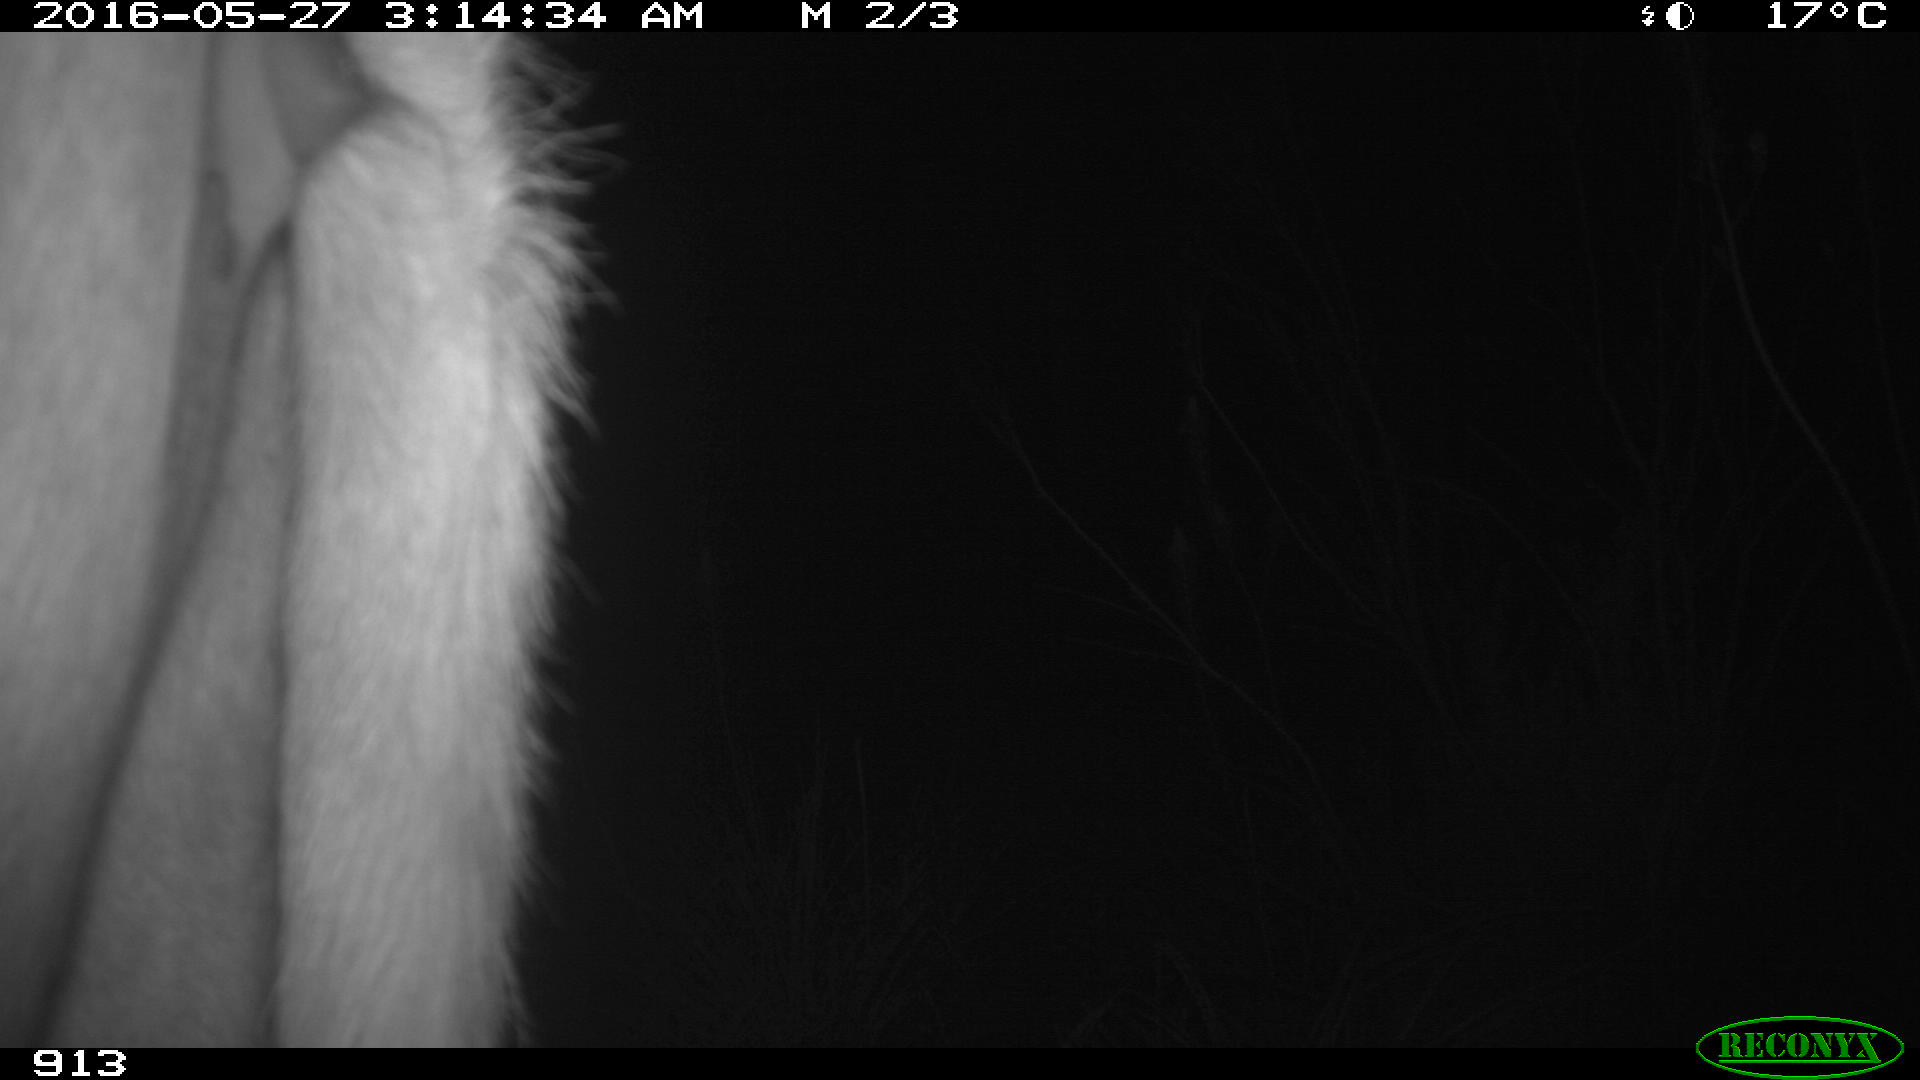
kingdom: Animalia
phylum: Chordata
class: Mammalia
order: Artiodactyla
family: Bovidae
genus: Bos
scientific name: Bos taurus
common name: Domesticated cattle
